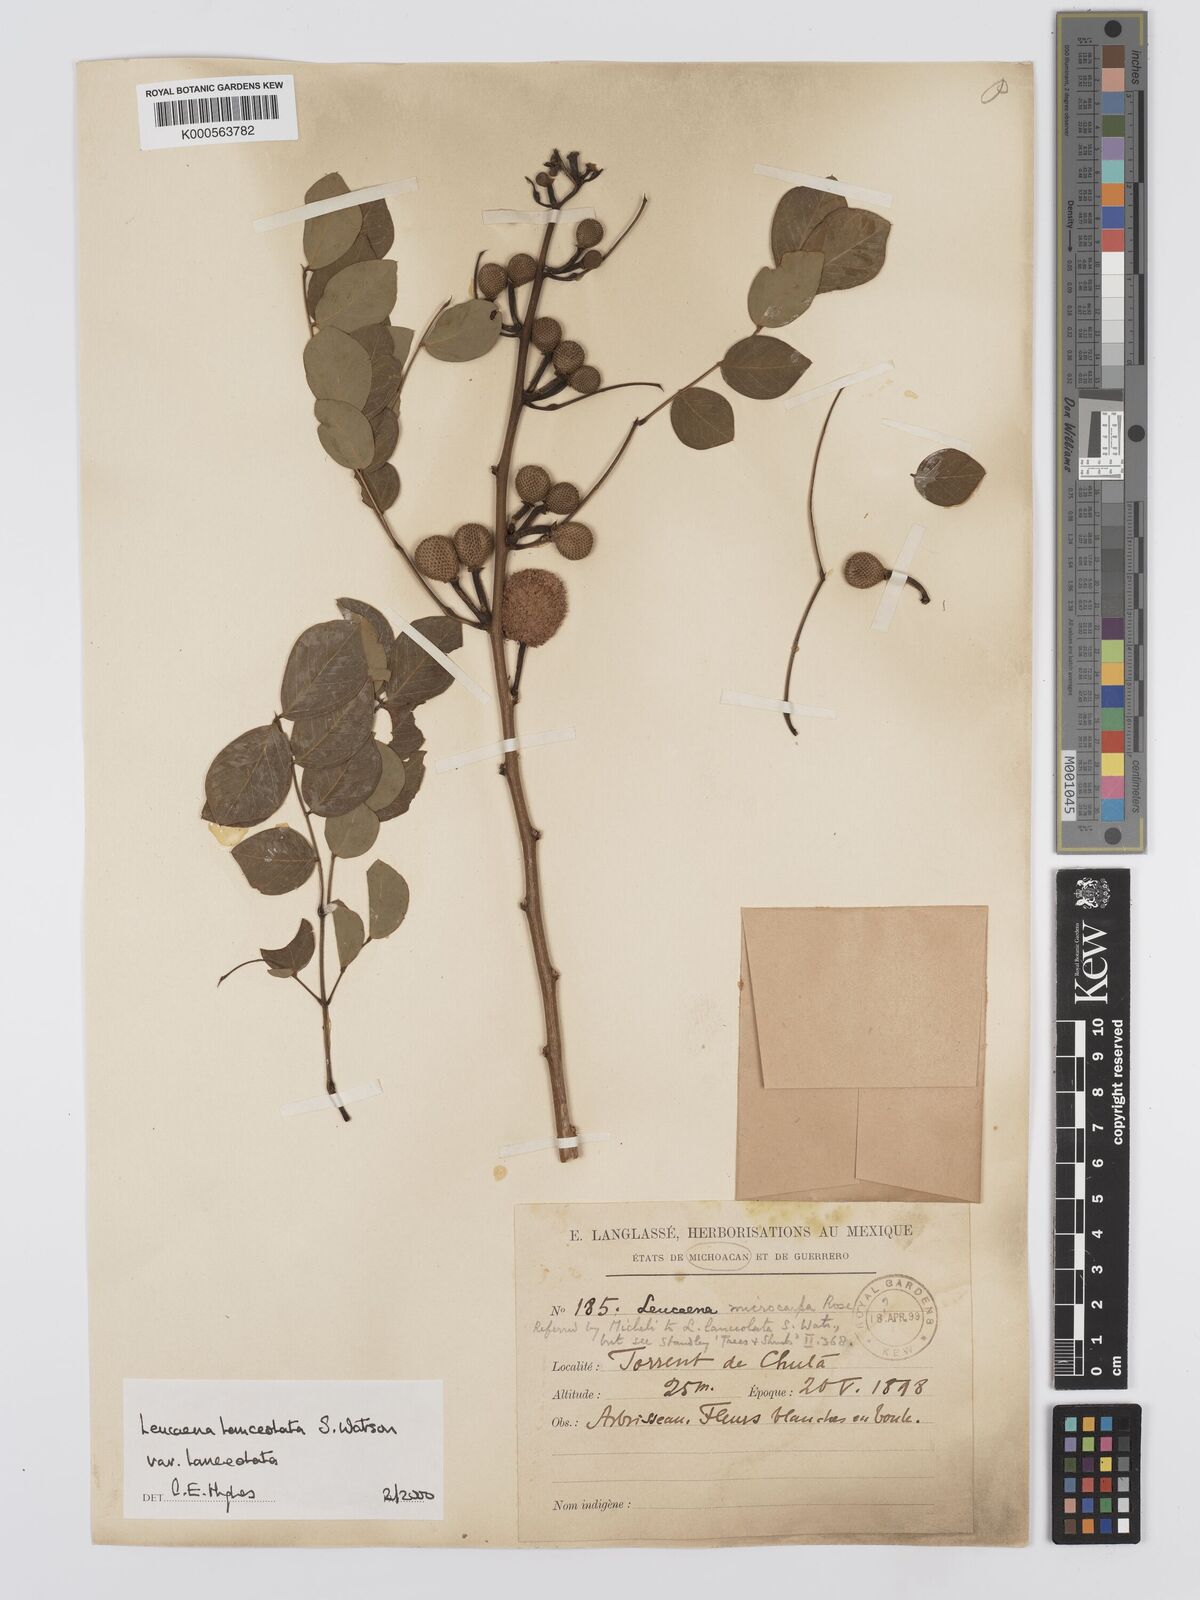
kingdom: Plantae
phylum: Tracheophyta
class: Magnoliopsida
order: Fabales
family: Fabaceae
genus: Leucaena
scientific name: Leucaena lanceolata
